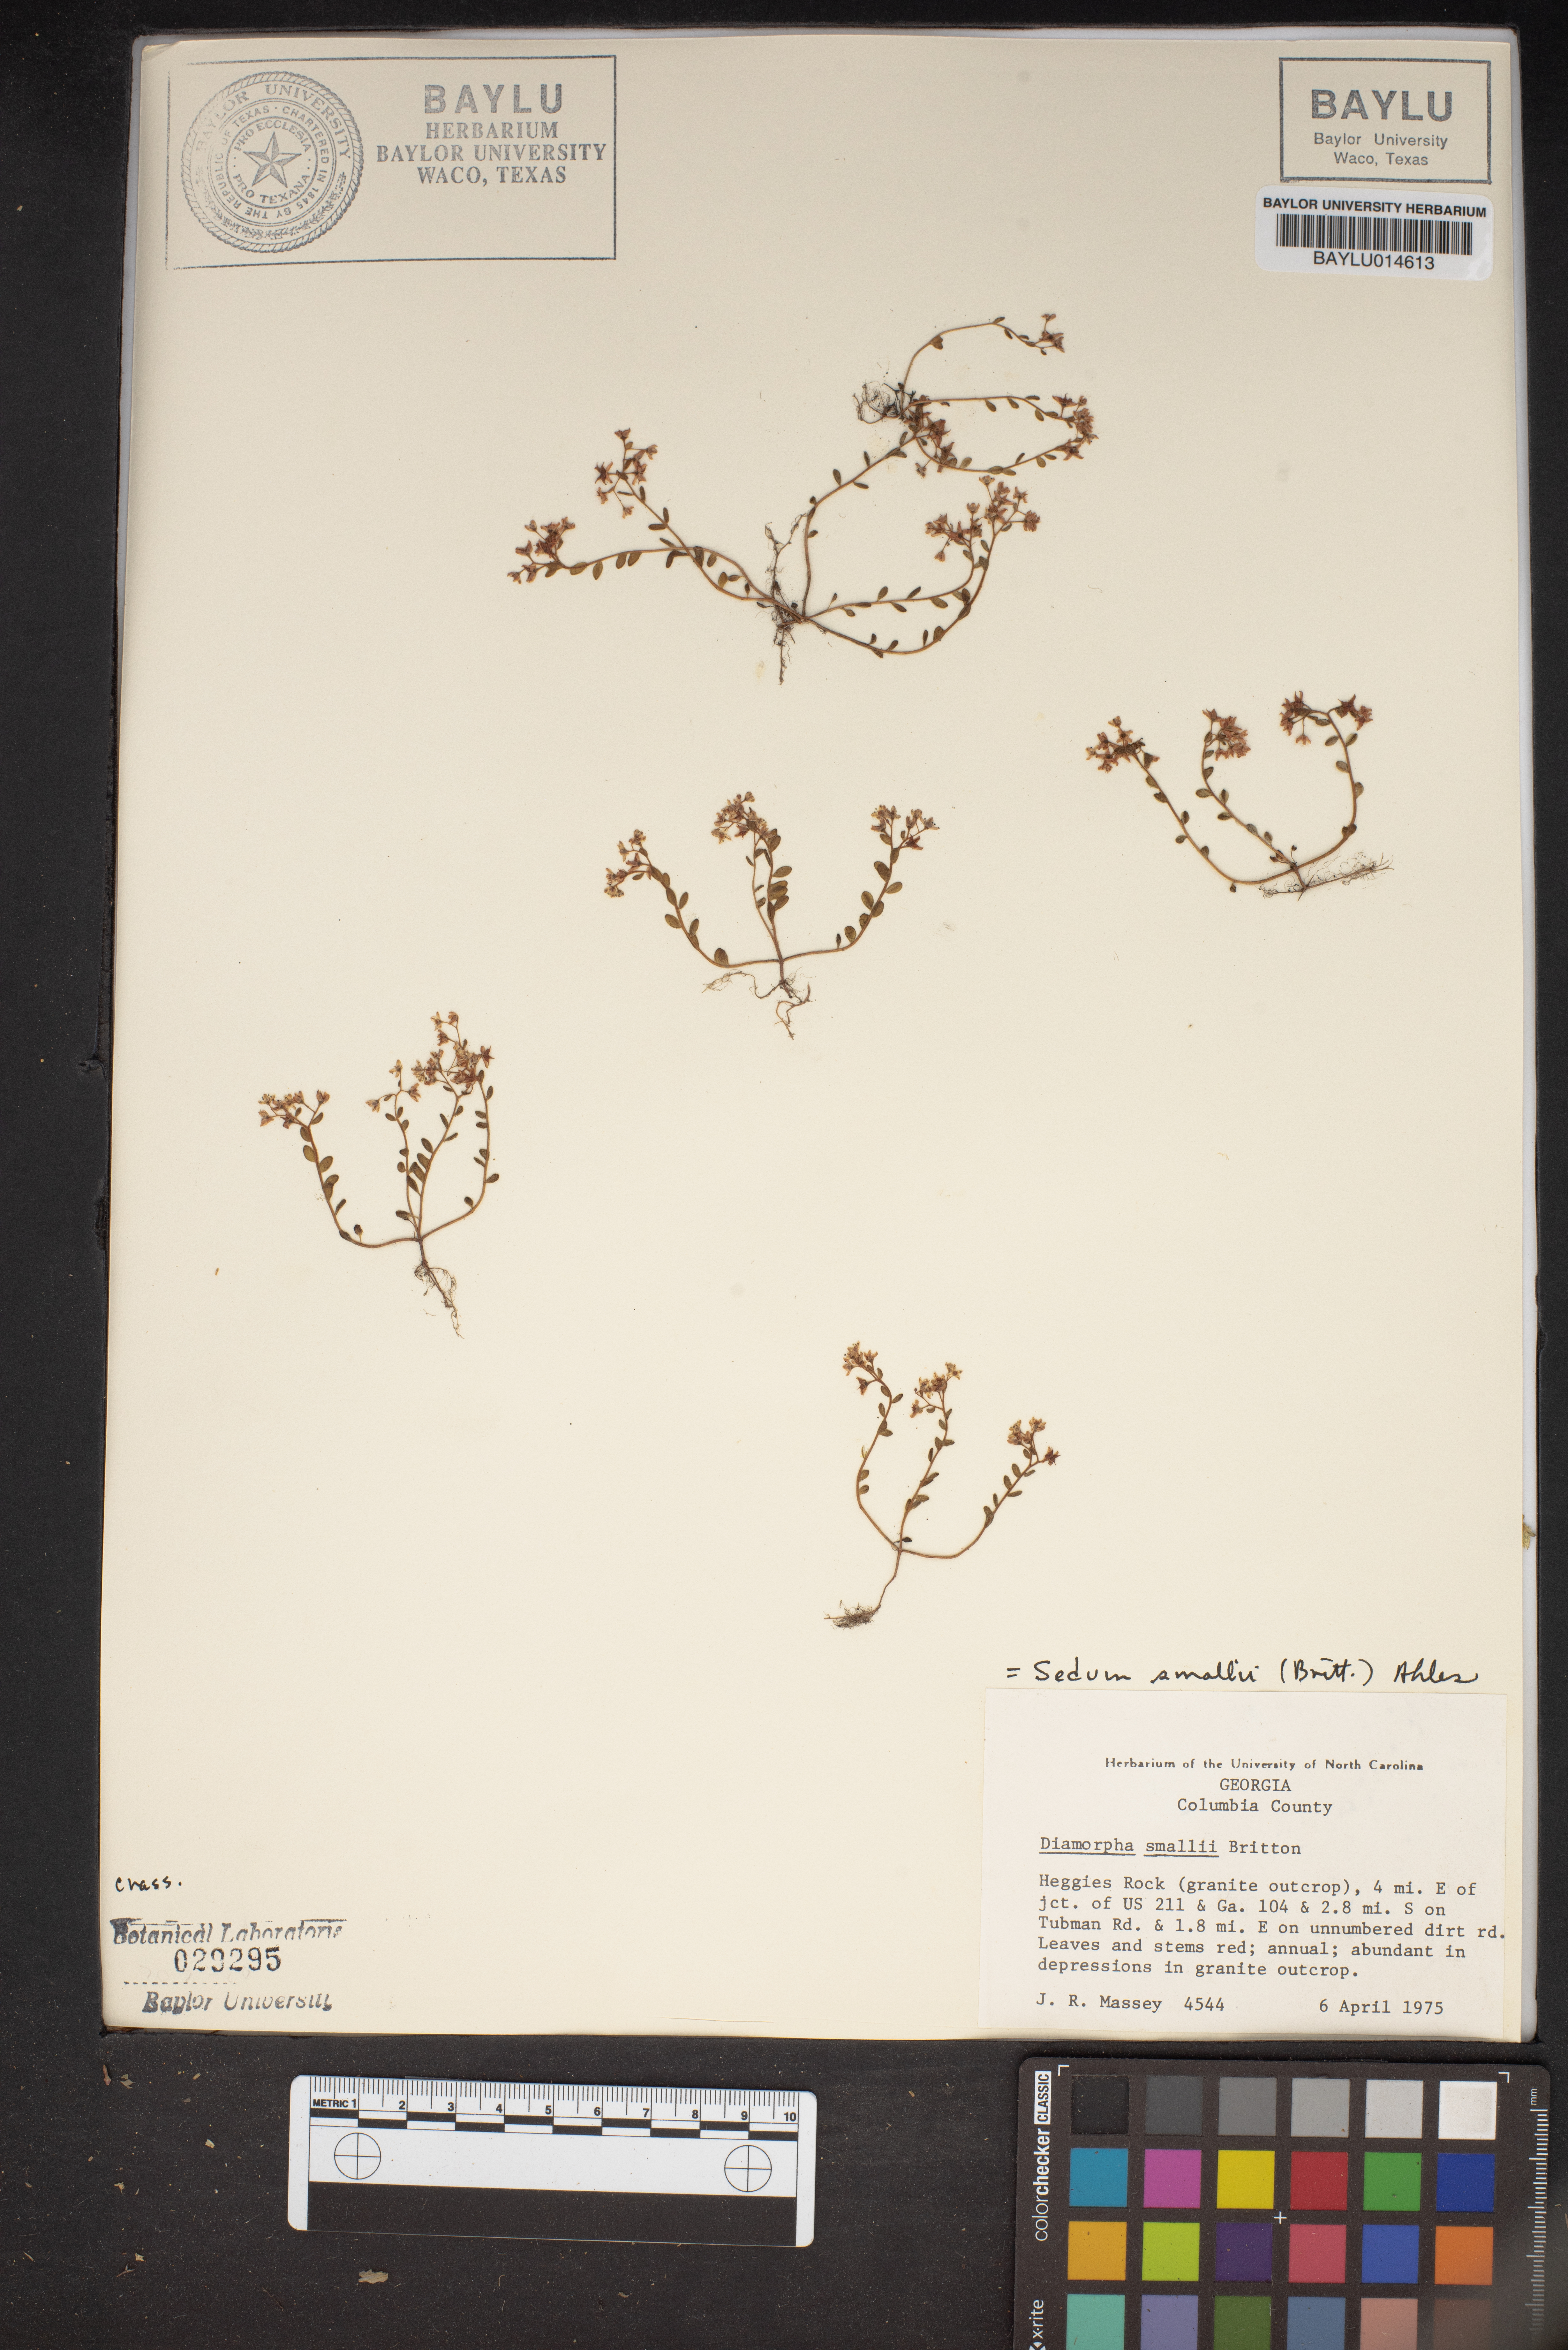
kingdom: Plantae
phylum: Tracheophyta
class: Magnoliopsida
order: Saxifragales
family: Crassulaceae
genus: Sedum
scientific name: Sedum Diamorpha smallii
